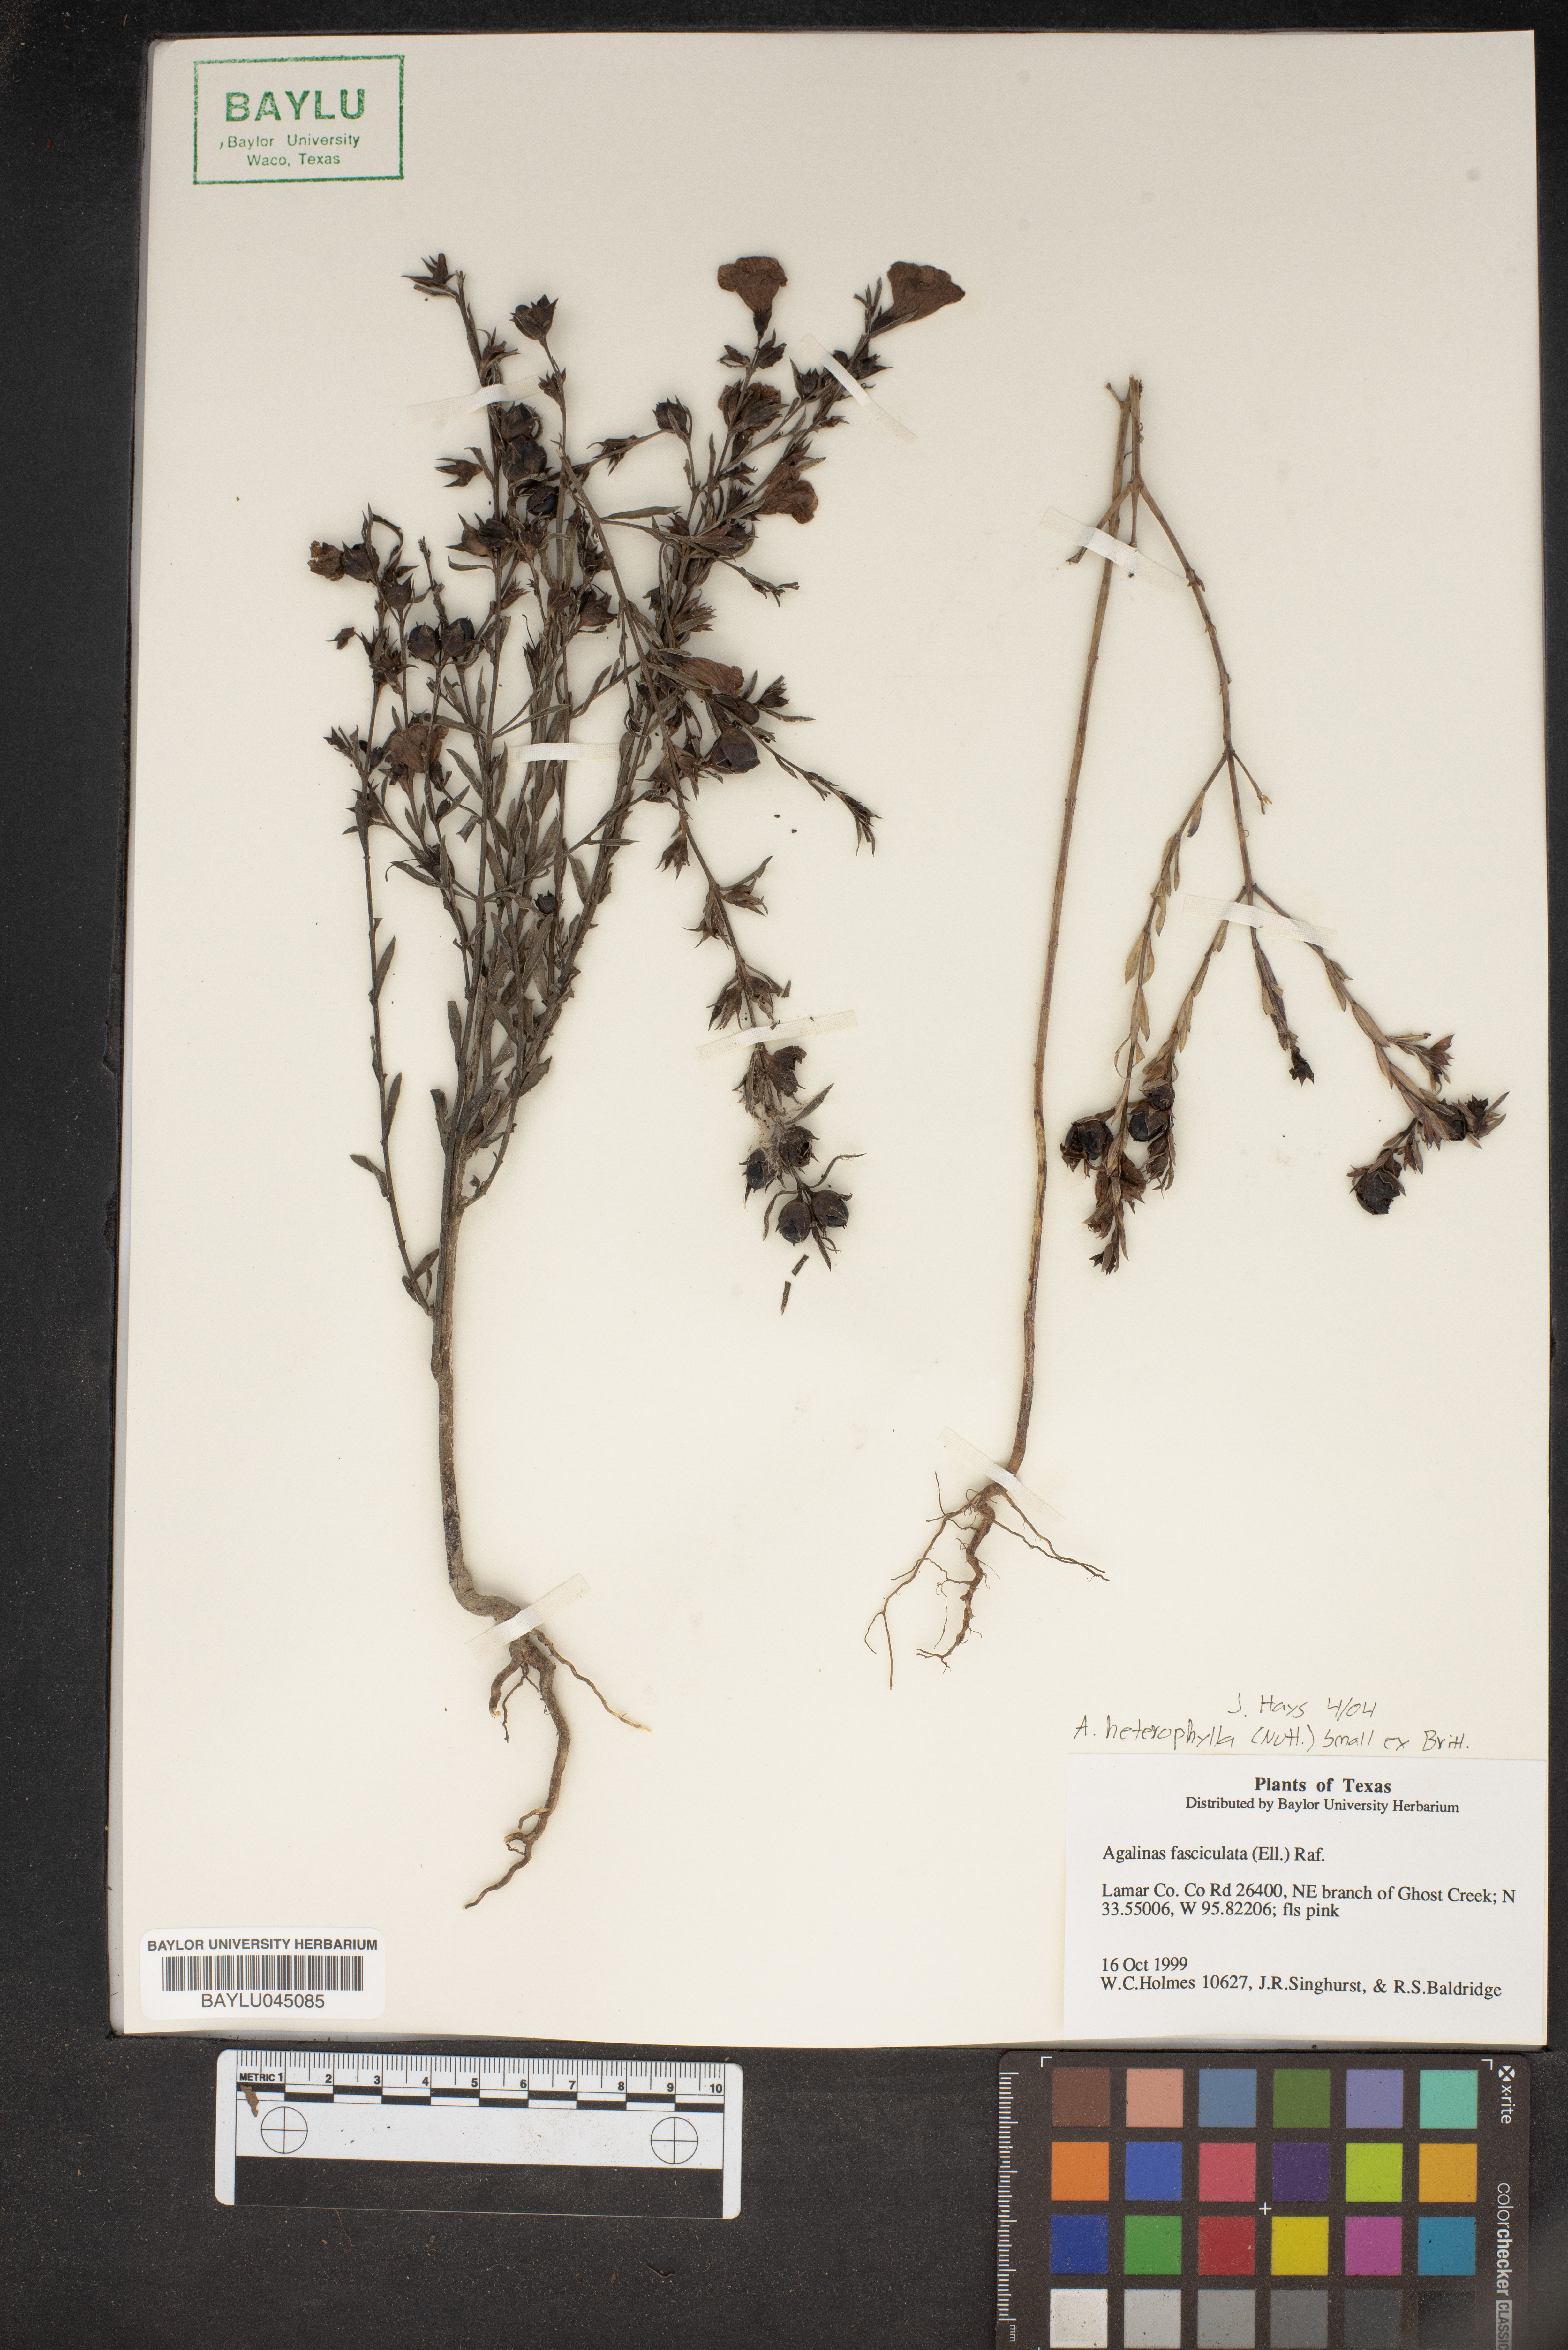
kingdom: Plantae
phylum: Tracheophyta
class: Magnoliopsida
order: Lamiales
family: Orobanchaceae
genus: Agalinis
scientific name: Agalinis fasciculata
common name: Beach false foxglove
